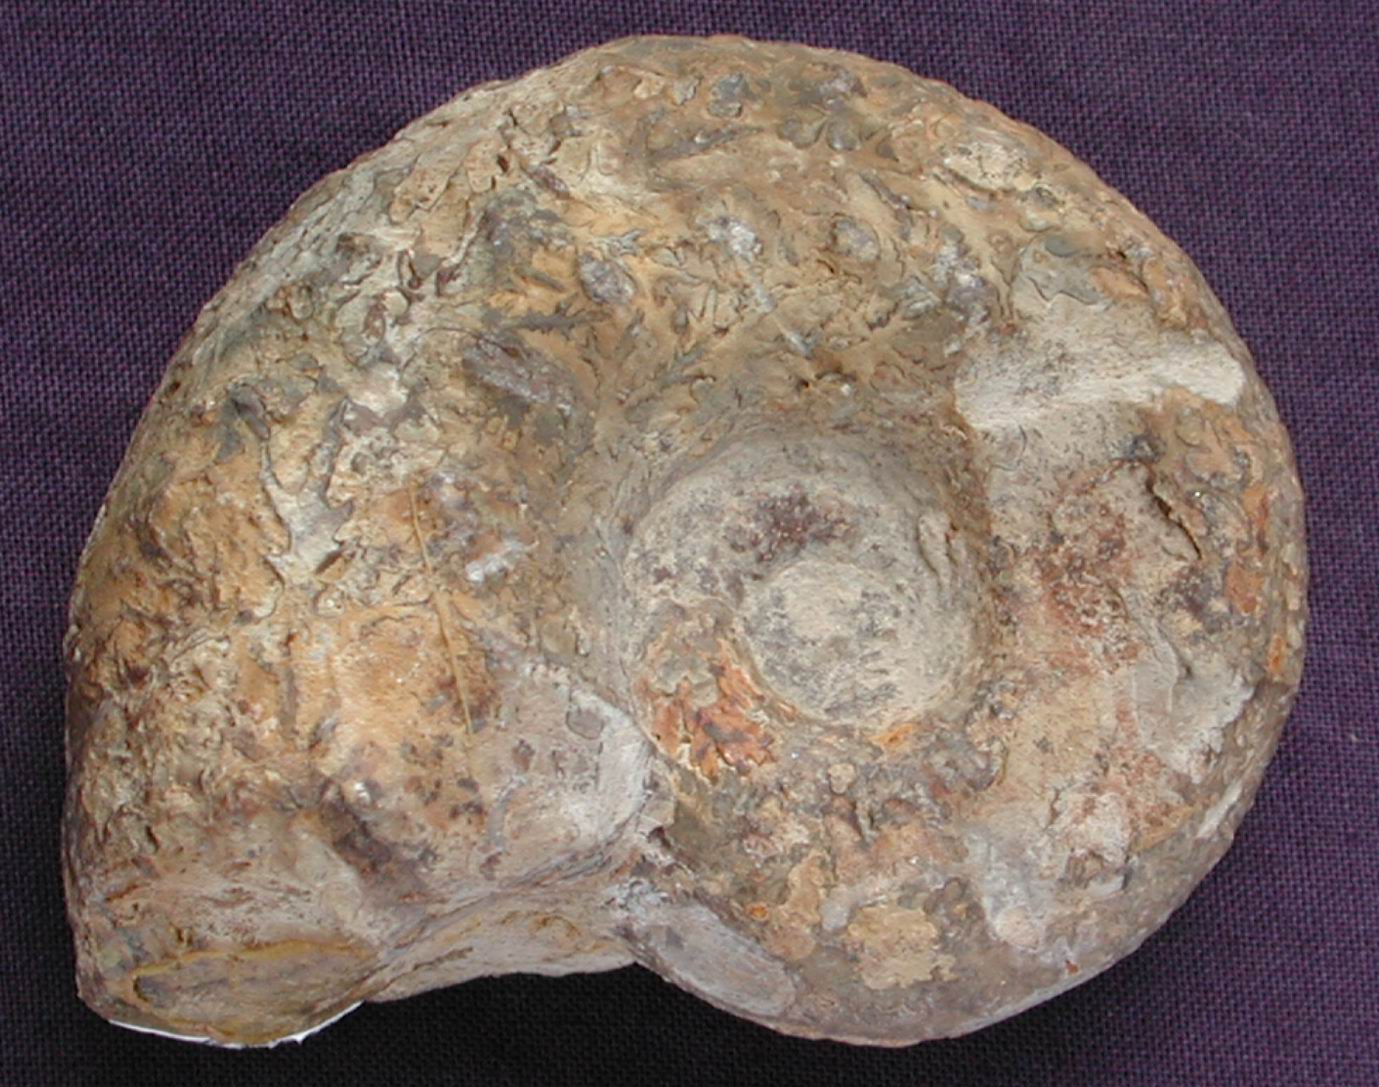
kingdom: Animalia
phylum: Mollusca
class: Cephalopoda
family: Liparoceratidae
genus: Liparoceras
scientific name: Liparoceras cheltiense
